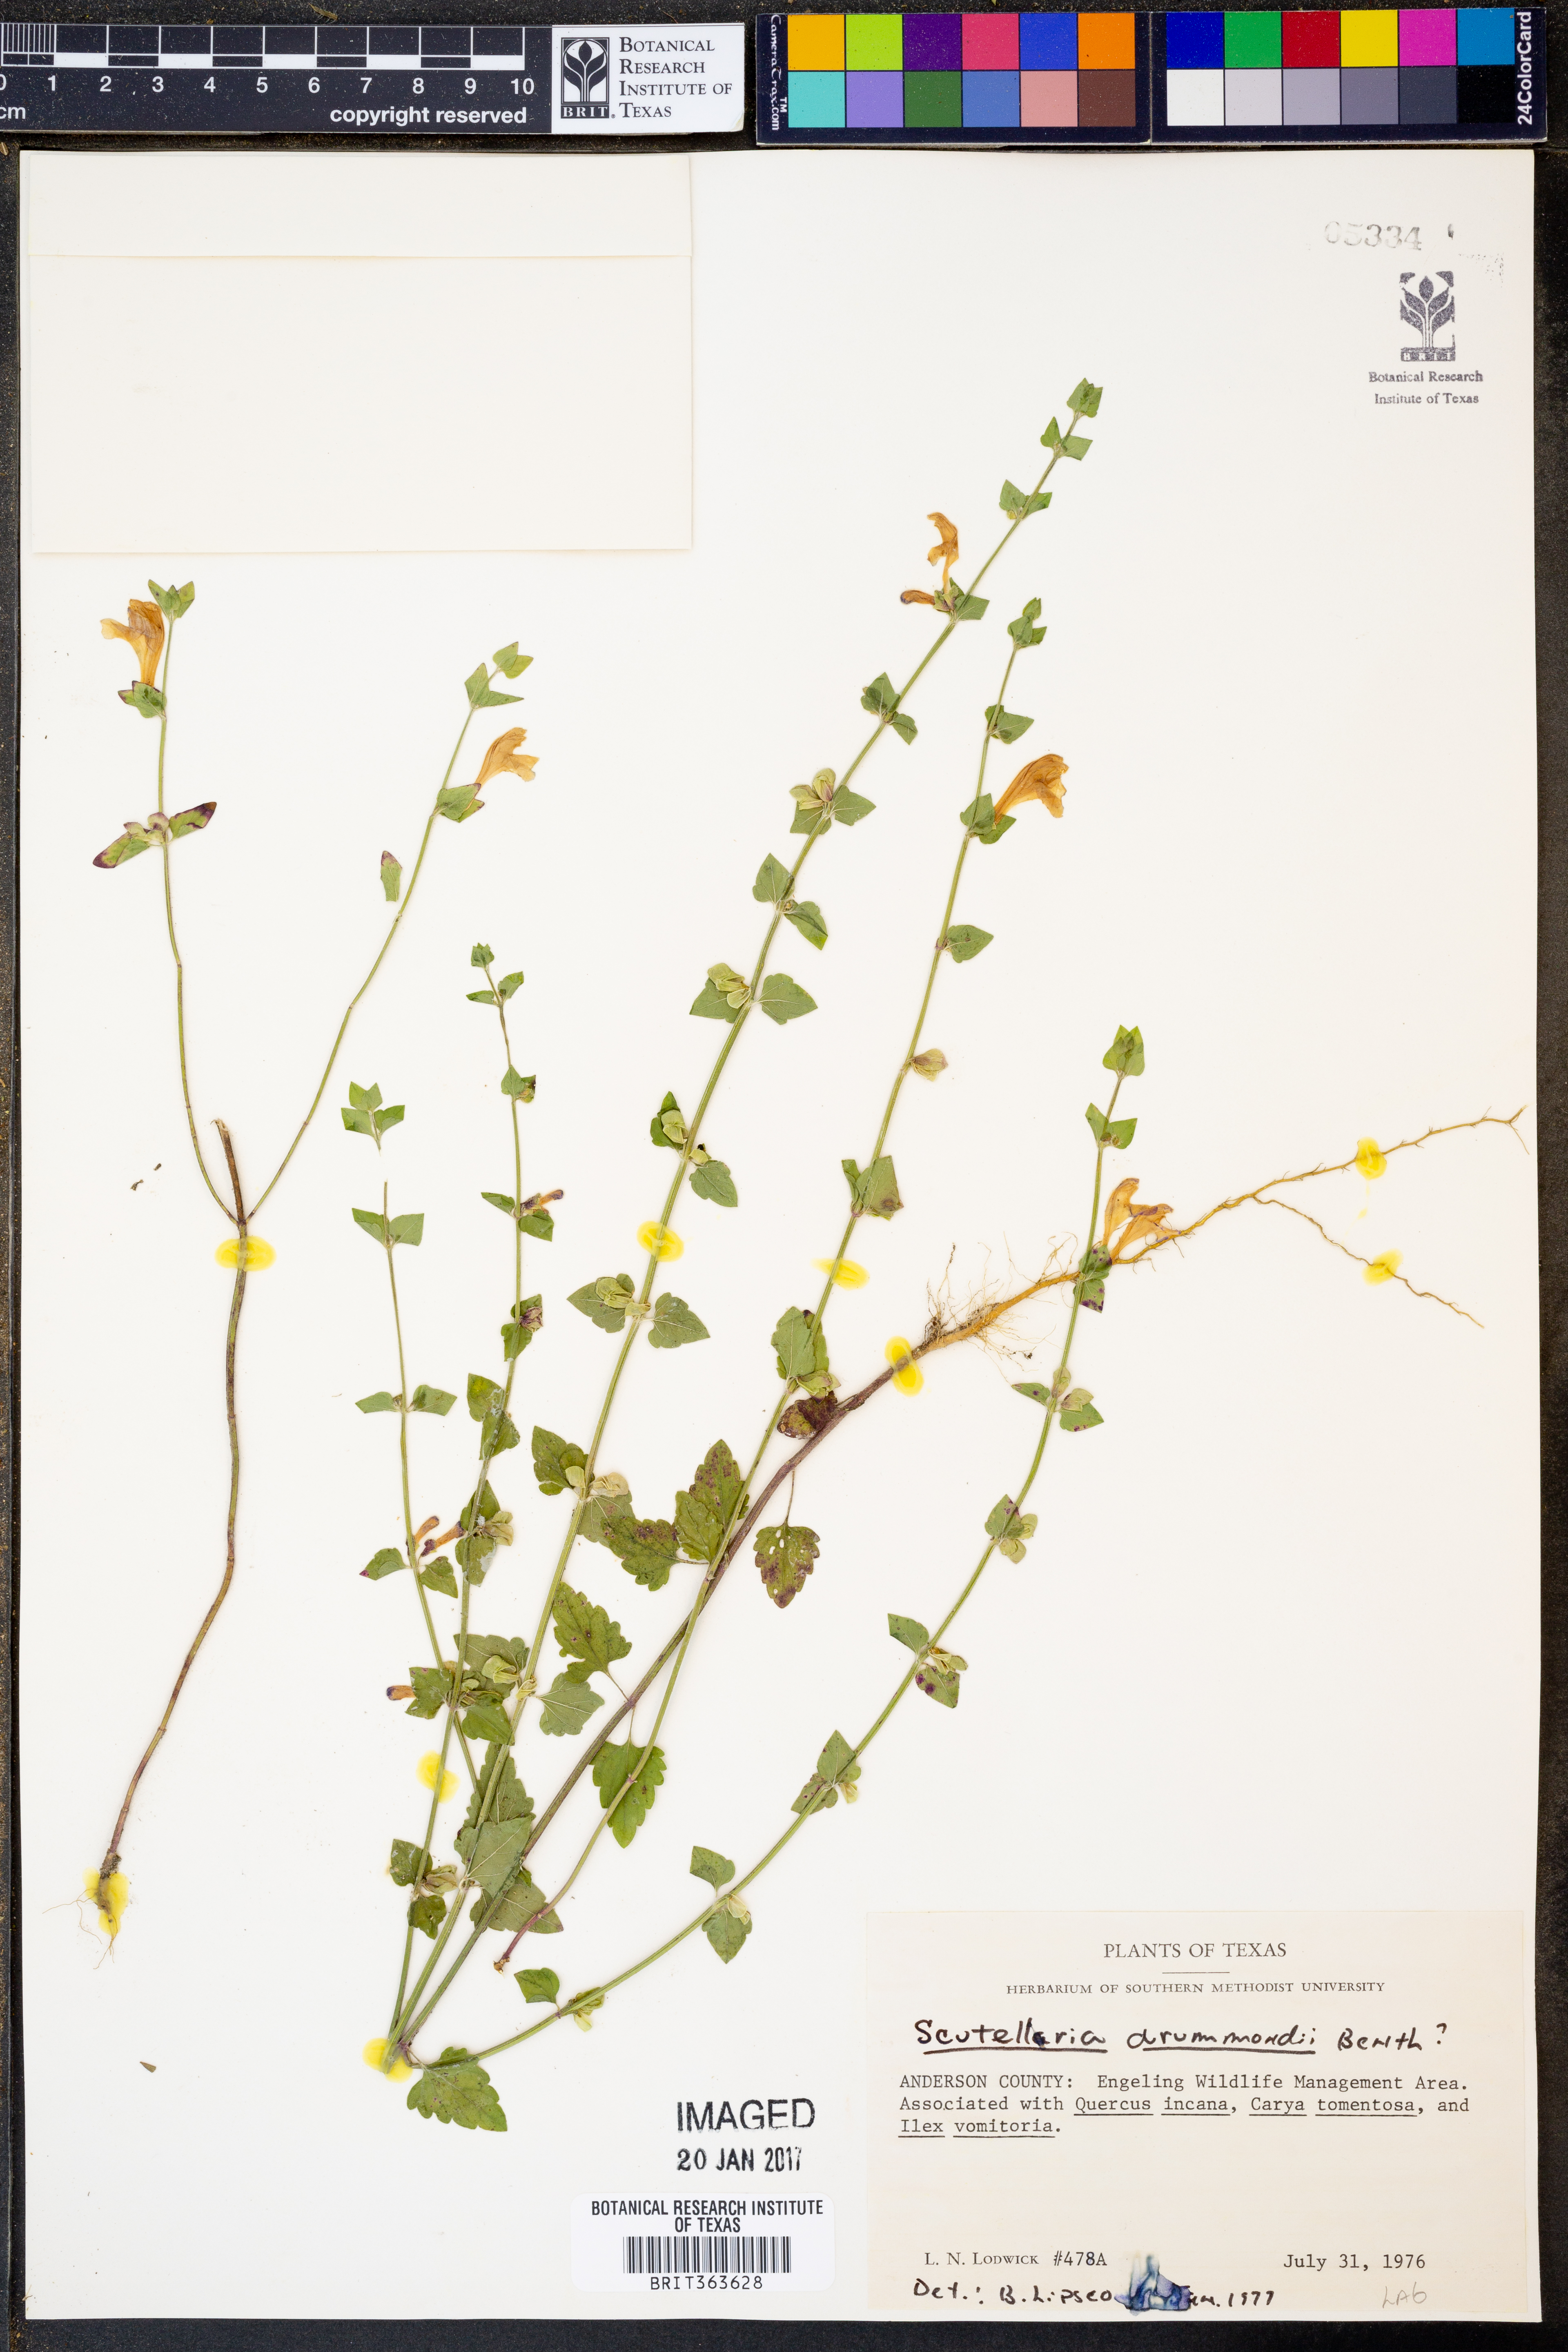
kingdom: Plantae
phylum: Tracheophyta
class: Magnoliopsida
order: Lamiales
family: Lamiaceae
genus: Scutellaria
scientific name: Scutellaria drummondii
